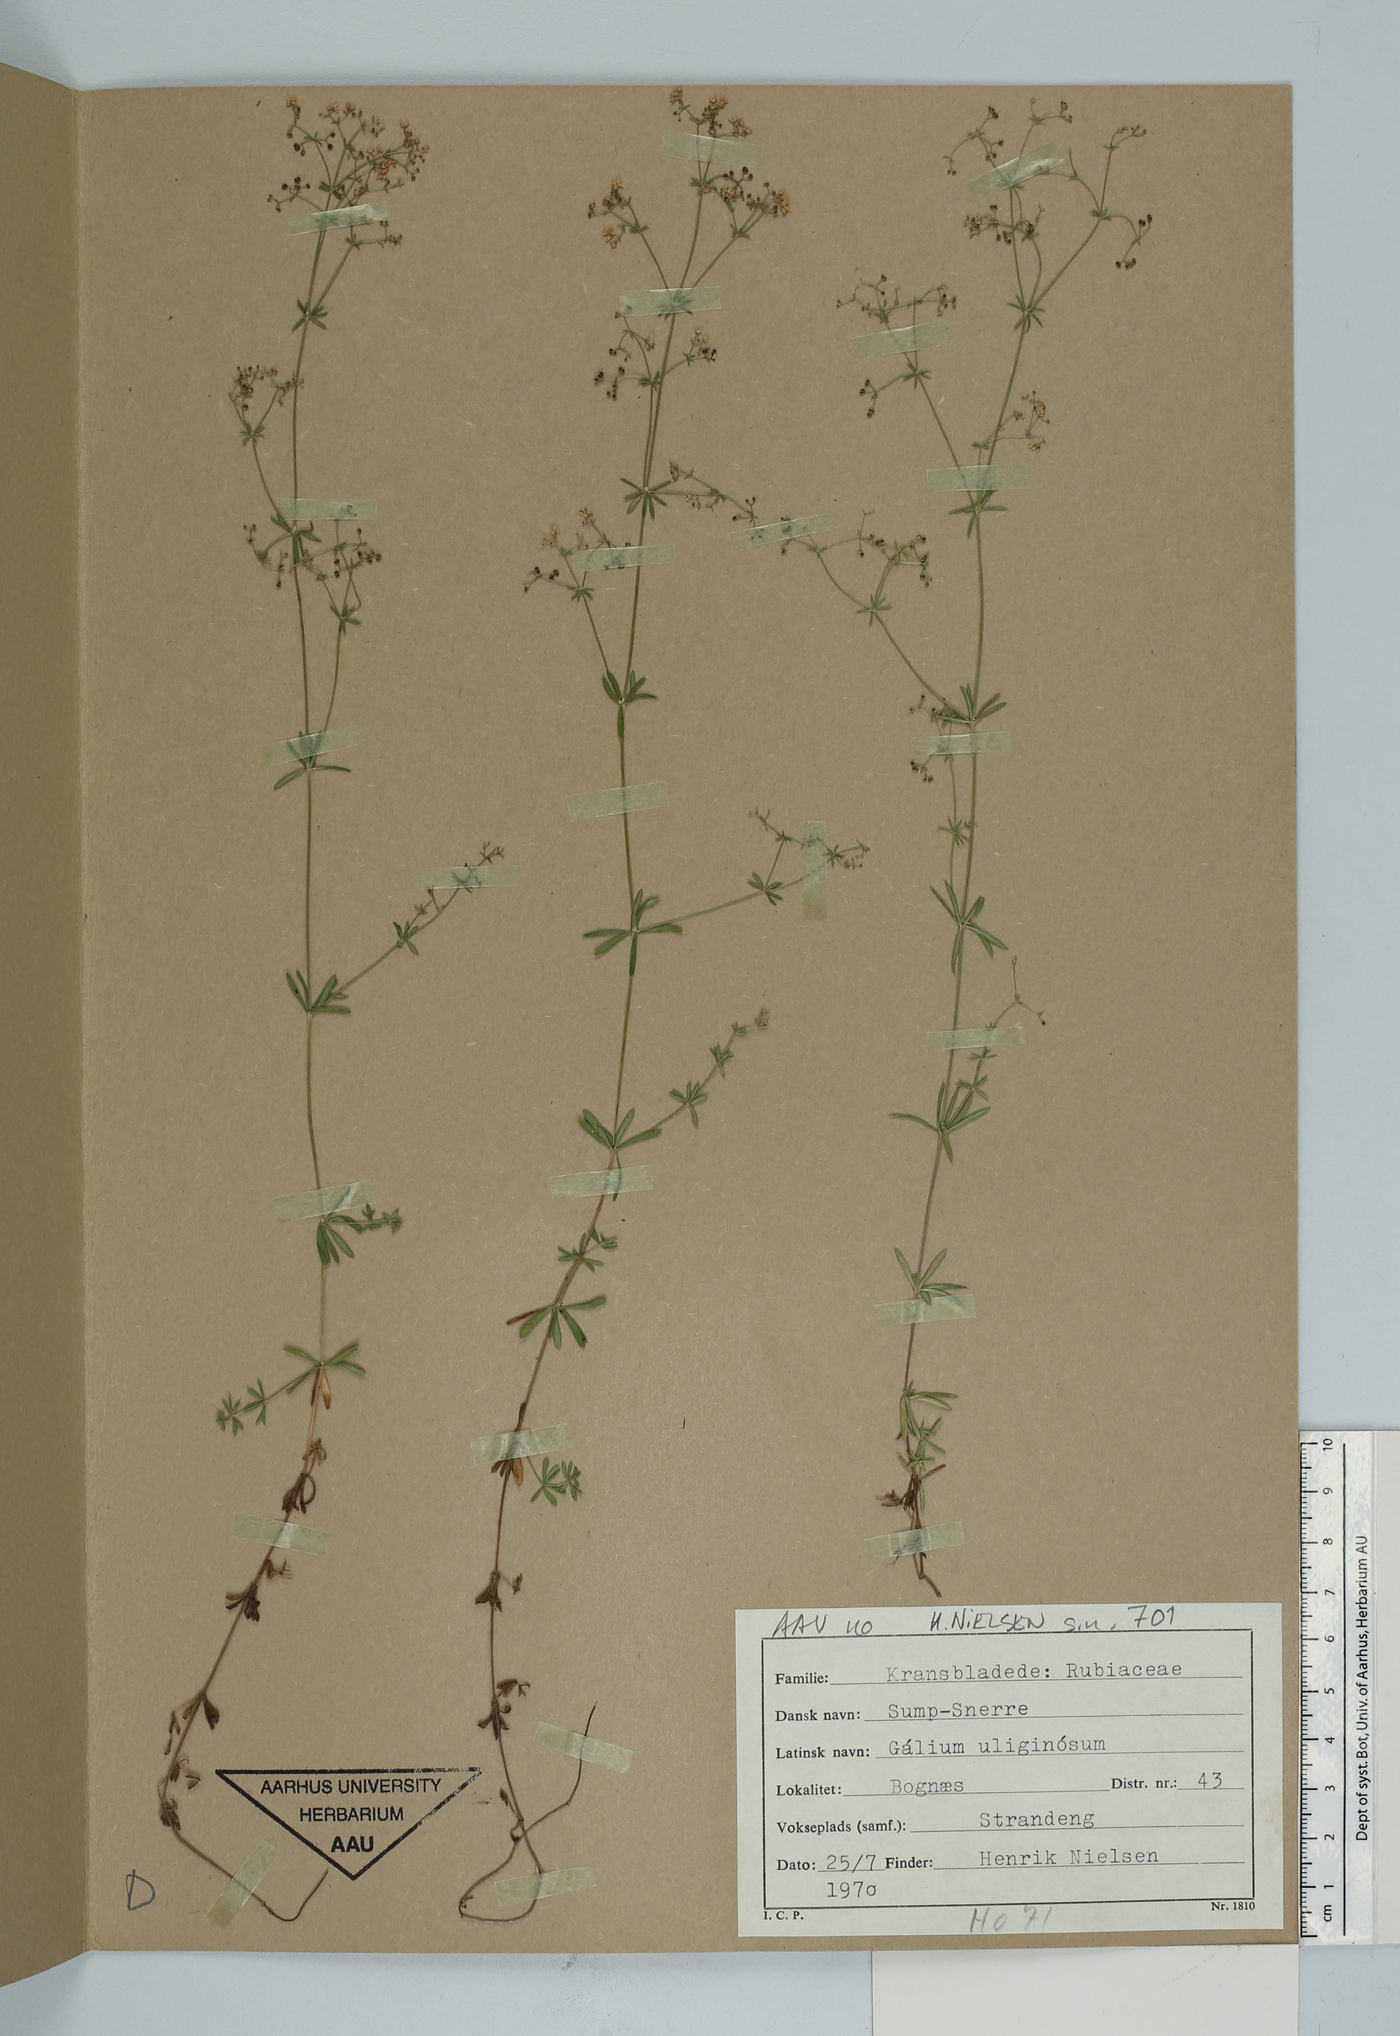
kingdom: Plantae
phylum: Tracheophyta
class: Magnoliopsida
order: Gentianales
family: Rubiaceae
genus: Galium
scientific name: Galium uliginosum
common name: Fen bedstraw
